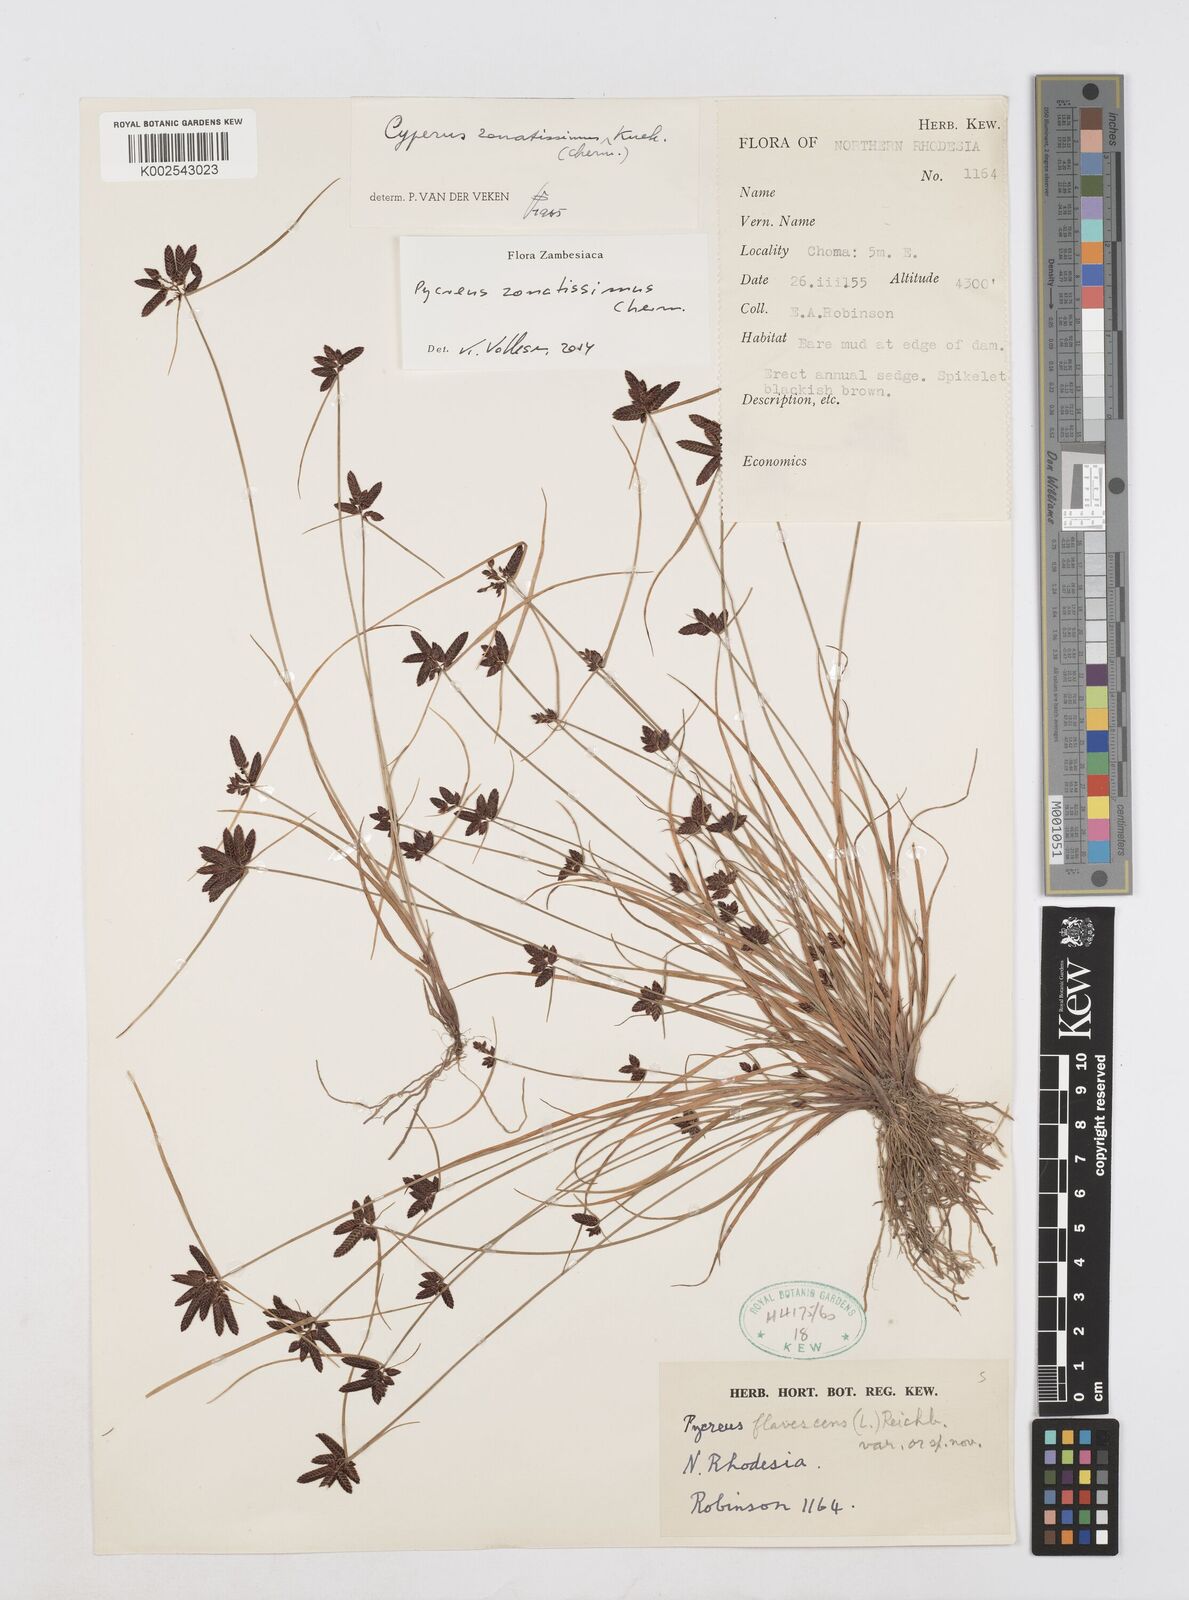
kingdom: Plantae
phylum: Tracheophyta
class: Liliopsida
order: Poales
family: Cyperaceae
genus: Cyperus
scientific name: Cyperus zonatissimus
